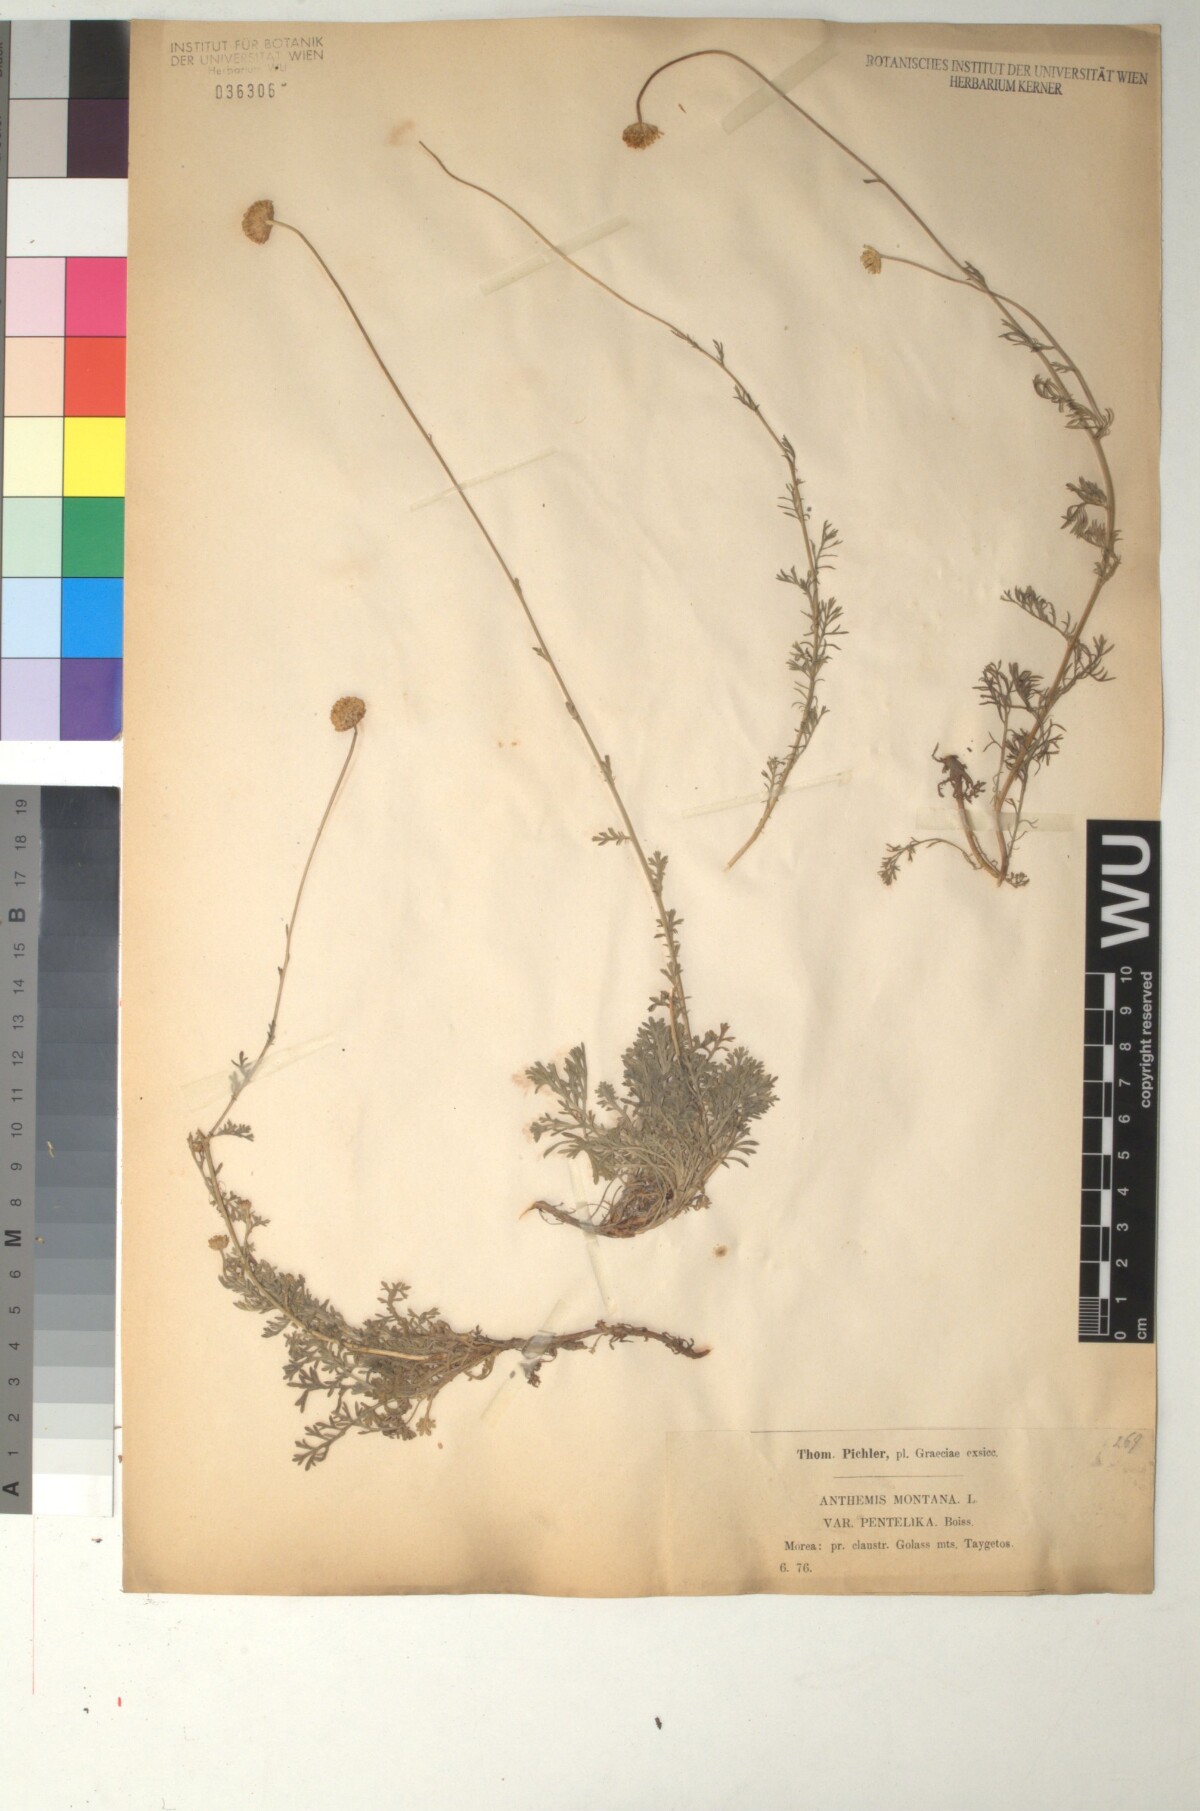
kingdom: Plantae
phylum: Tracheophyta
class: Magnoliopsida
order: Asterales
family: Asteraceae
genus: Anthemis
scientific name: Anthemis cretica
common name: Mountain dog-daisy
